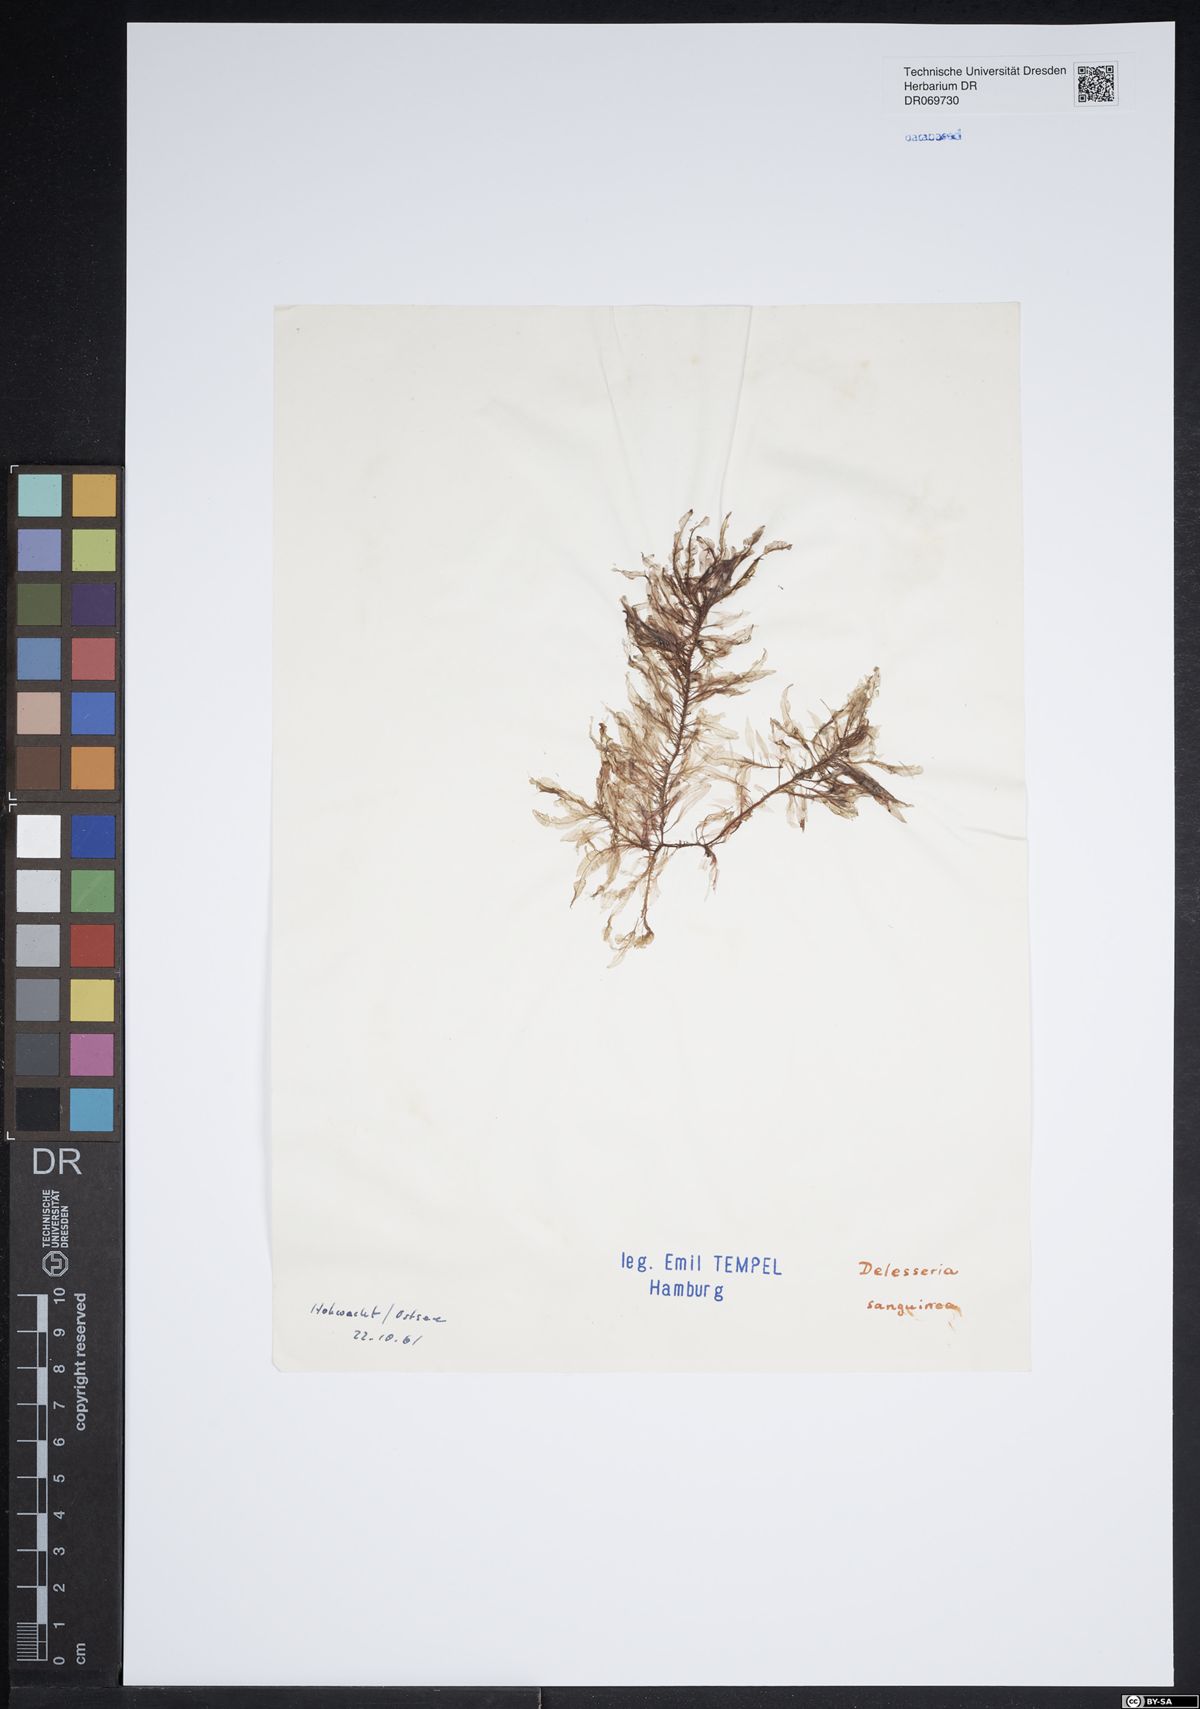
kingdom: Plantae
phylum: Rhodophyta
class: Florideophyceae
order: Ceramiales
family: Delesseriaceae
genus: Delesseria
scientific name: Delesseria sanguinea
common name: Sea beech
